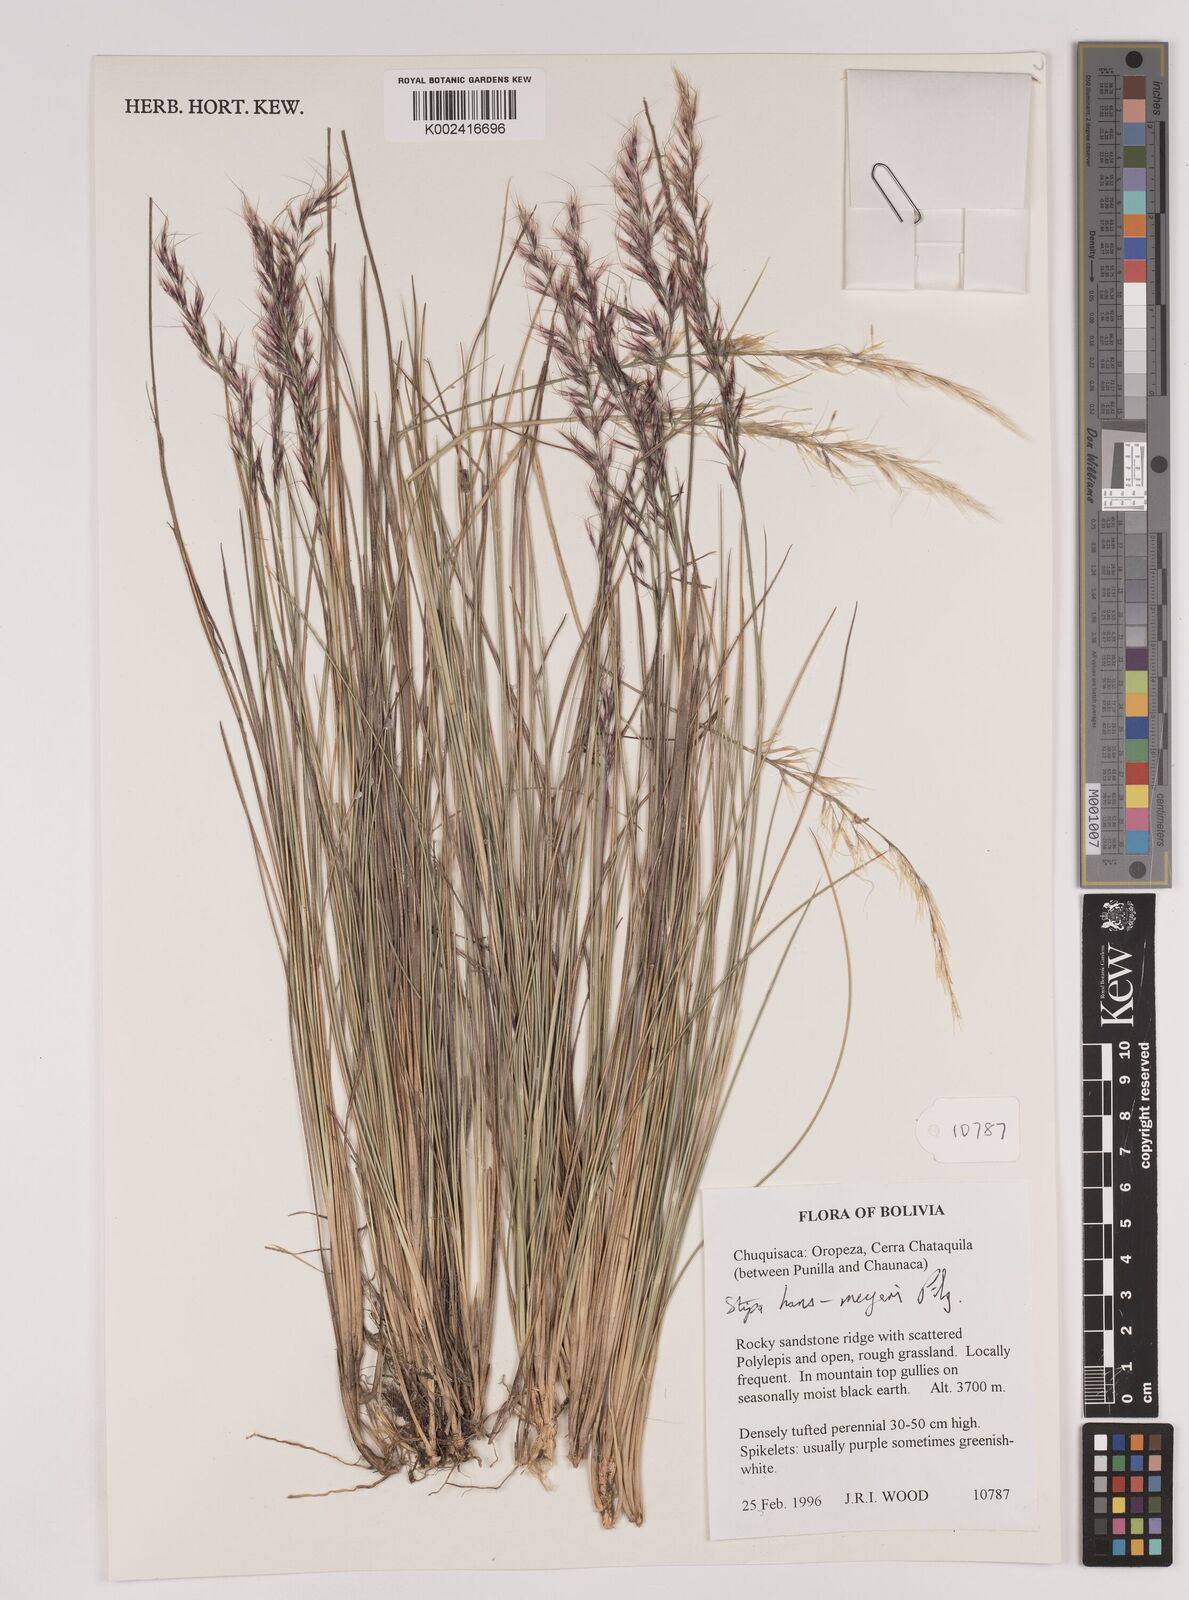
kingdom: Plantae
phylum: Tracheophyta
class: Liliopsida
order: Poales
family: Poaceae
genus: Stipa
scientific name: Stipa hans-meyeri
